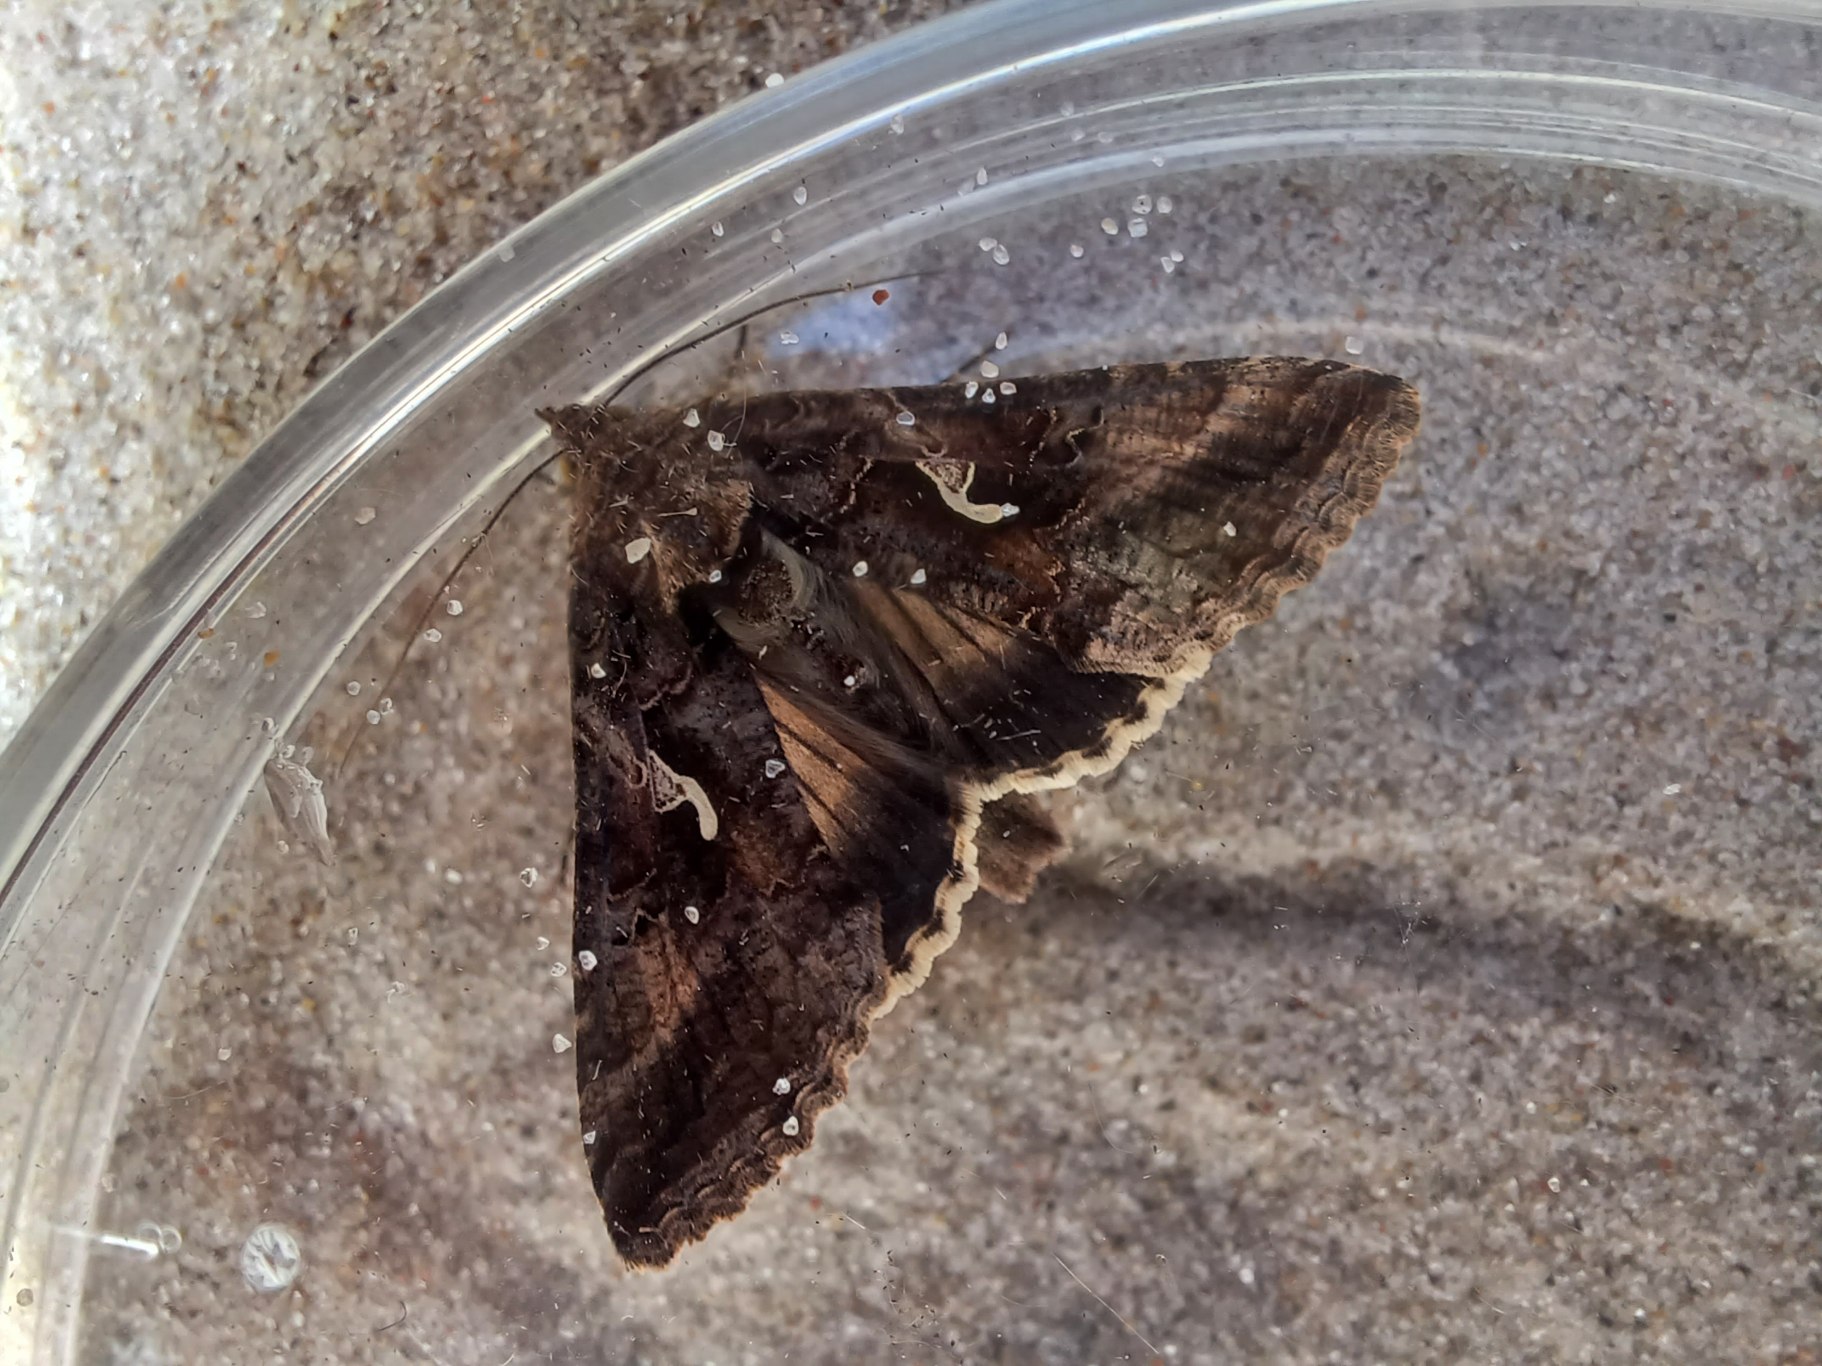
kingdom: Animalia
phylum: Arthropoda
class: Insecta
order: Lepidoptera
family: Noctuidae
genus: Autographa
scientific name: Autographa gamma
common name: Gammaugle
